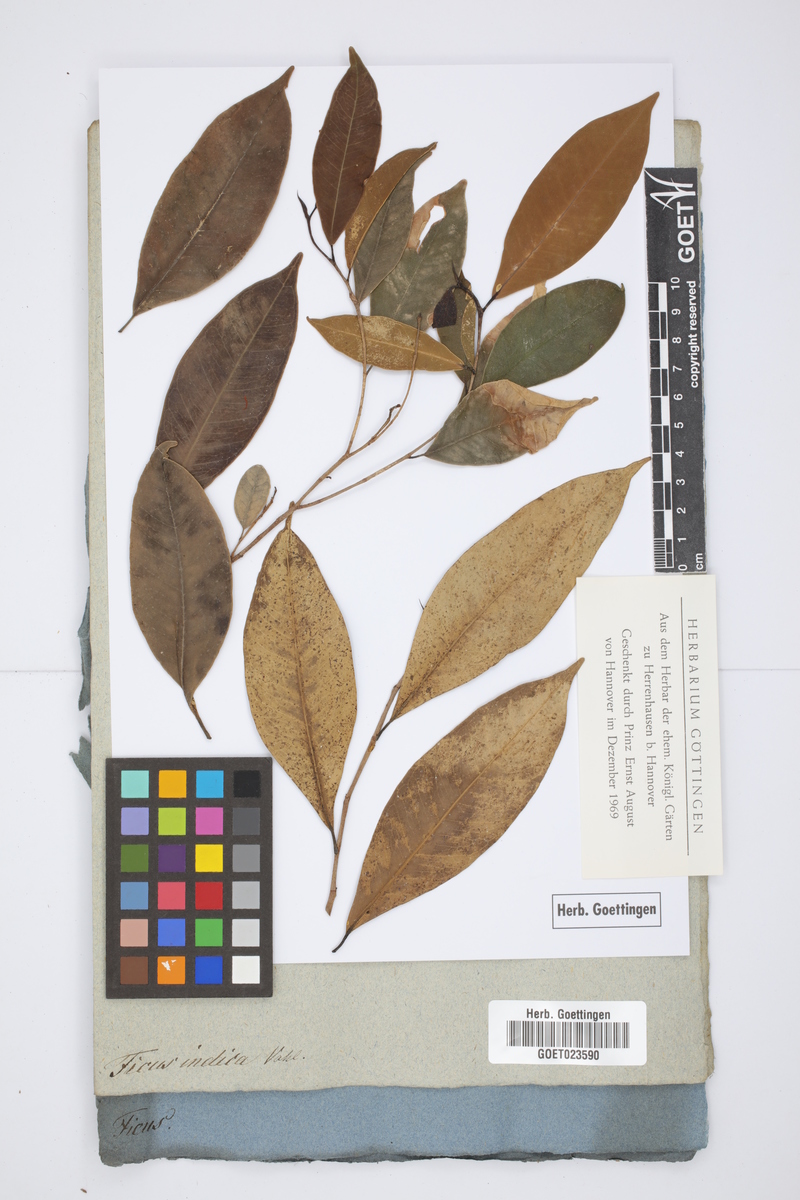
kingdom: Plantae
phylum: Tracheophyta
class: Magnoliopsida
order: Rosales
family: Moraceae
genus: Ficus
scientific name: Ficus drupacea
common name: Drupe fig
